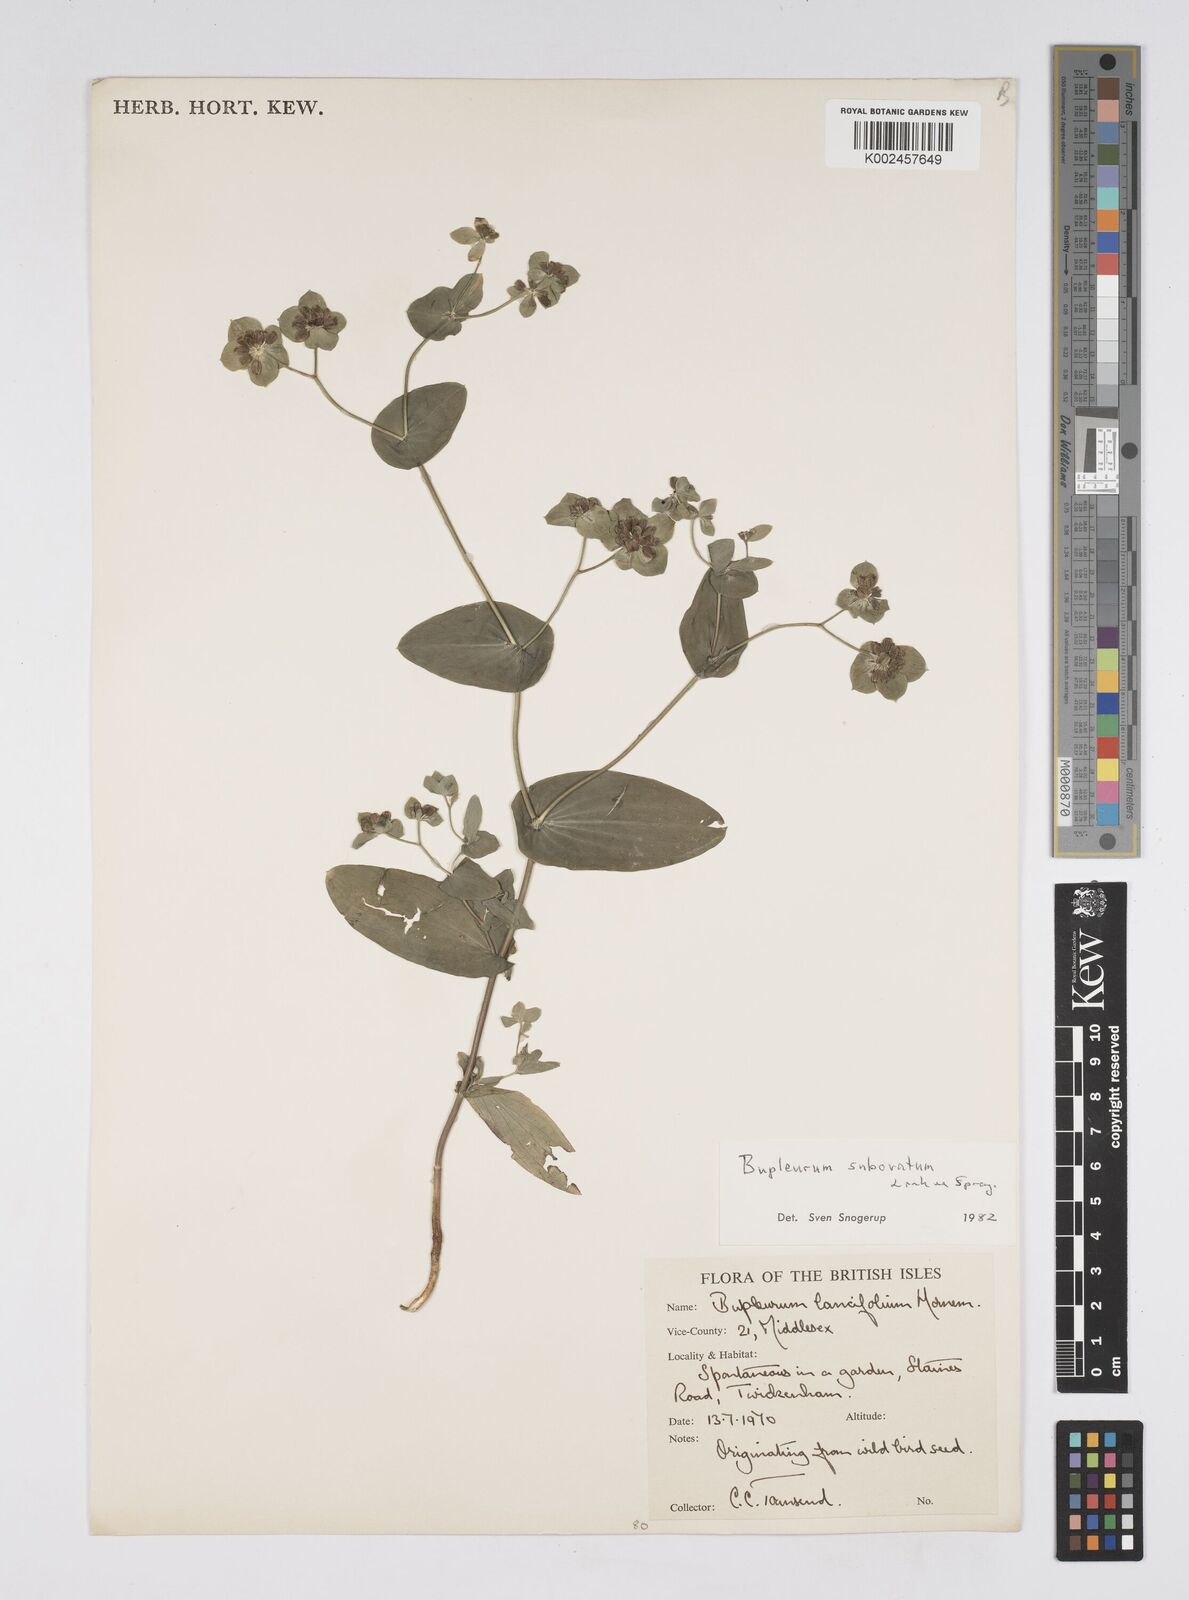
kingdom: Plantae
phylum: Tracheophyta
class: Magnoliopsida
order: Apiales
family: Apiaceae
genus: Bupleurum
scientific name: Bupleurum subovatum
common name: False thorow-wax
